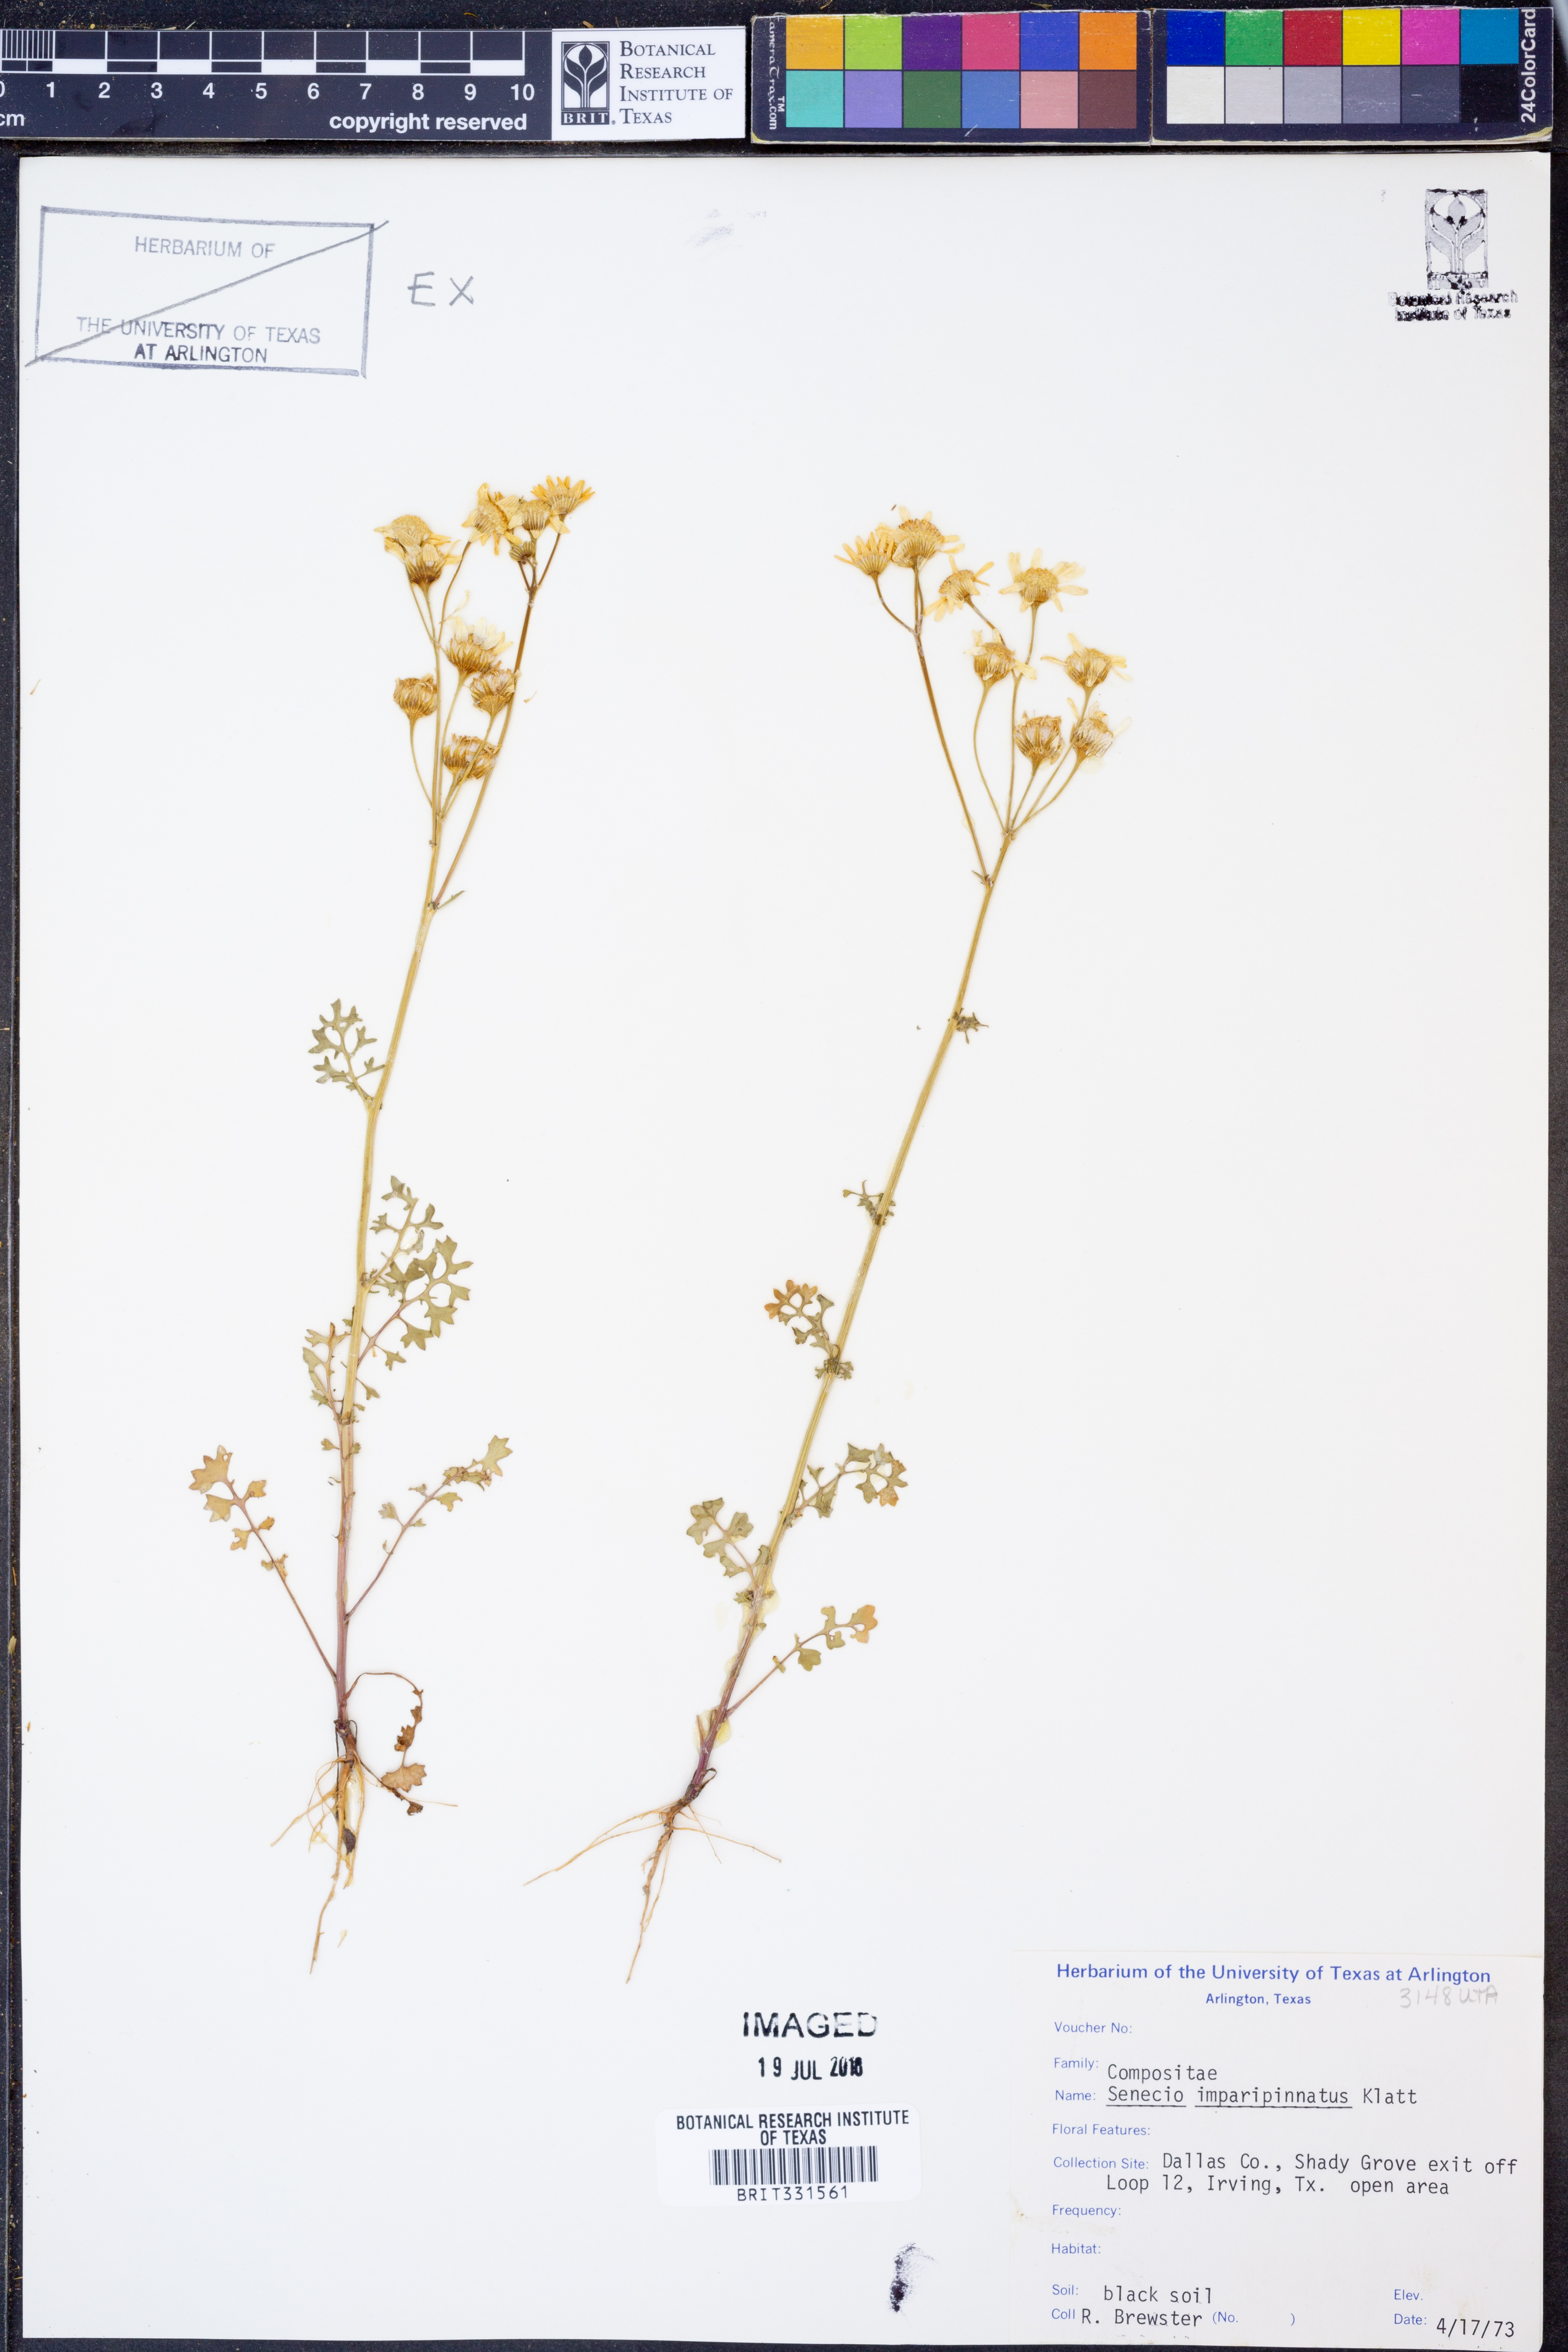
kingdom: Plantae
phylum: Tracheophyta
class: Magnoliopsida
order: Asterales
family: Asteraceae
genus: Packera
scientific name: Packera tampicana
